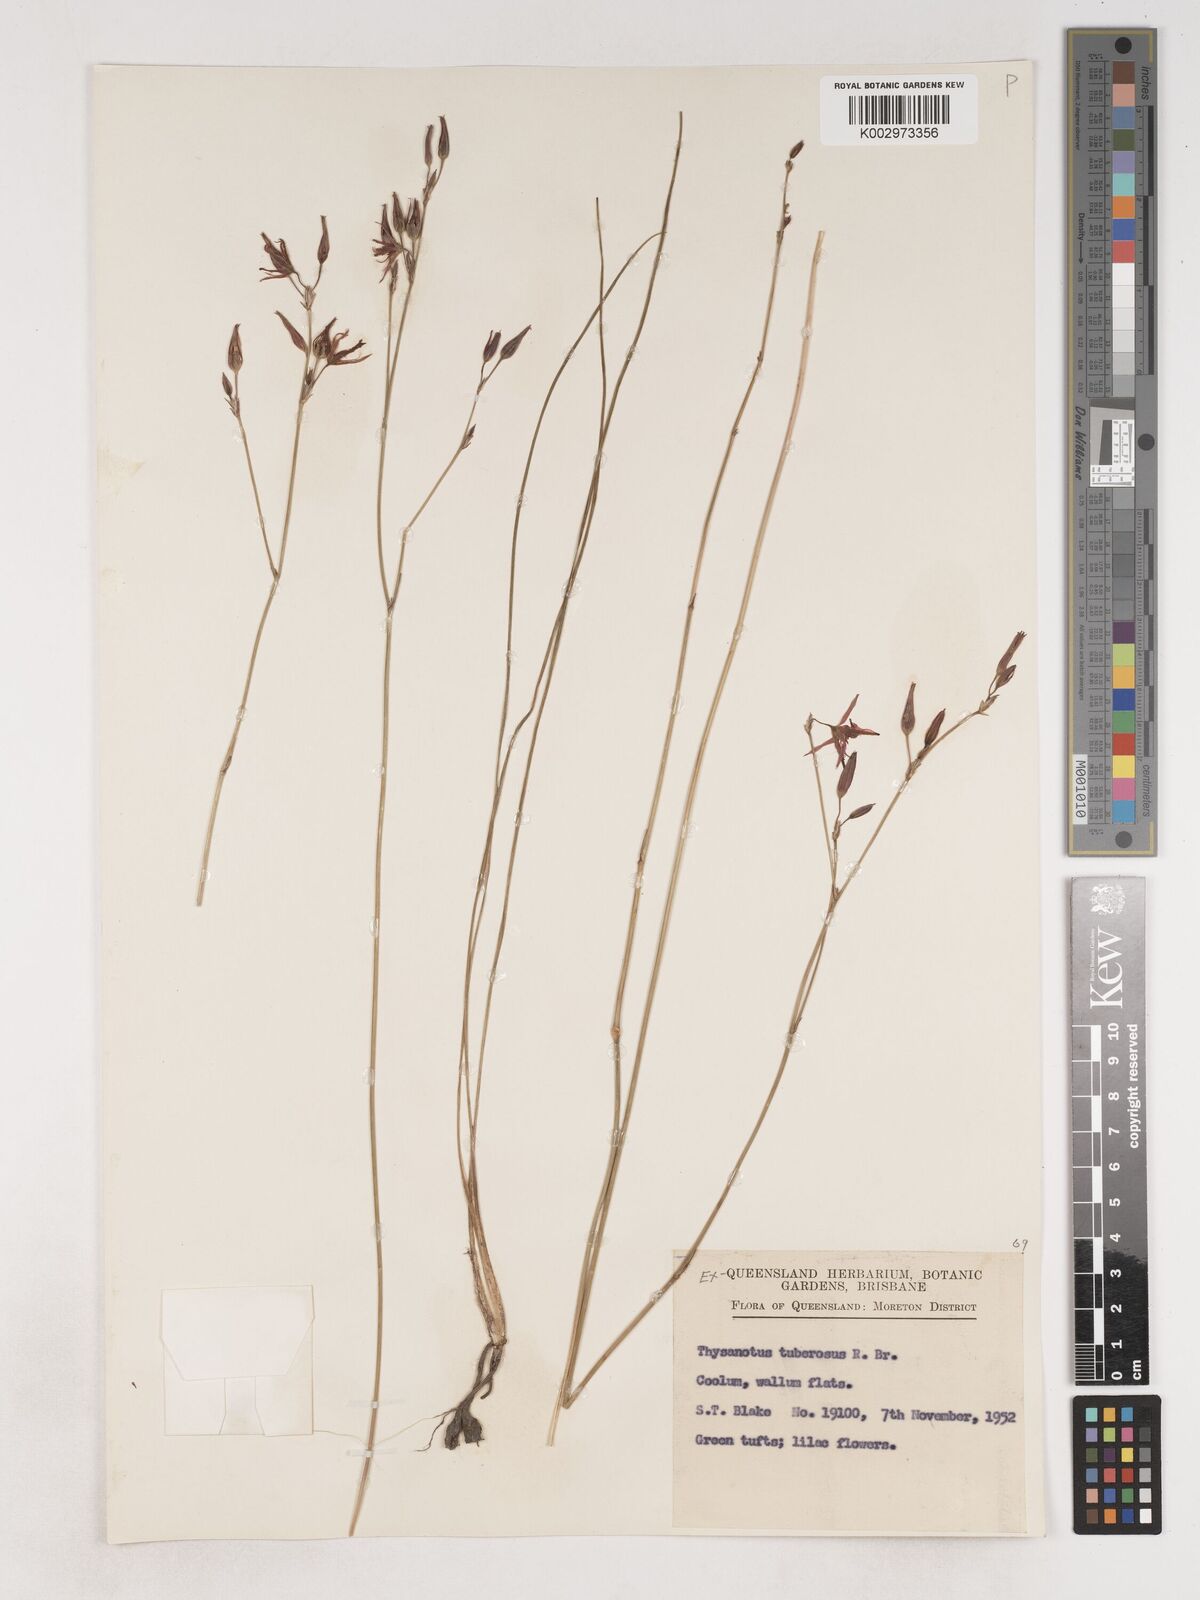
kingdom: Plantae
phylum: Tracheophyta
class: Liliopsida
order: Asparagales
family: Asparagaceae
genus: Thysanotus
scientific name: Thysanotus tuberosus
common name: Common fringed-lily
